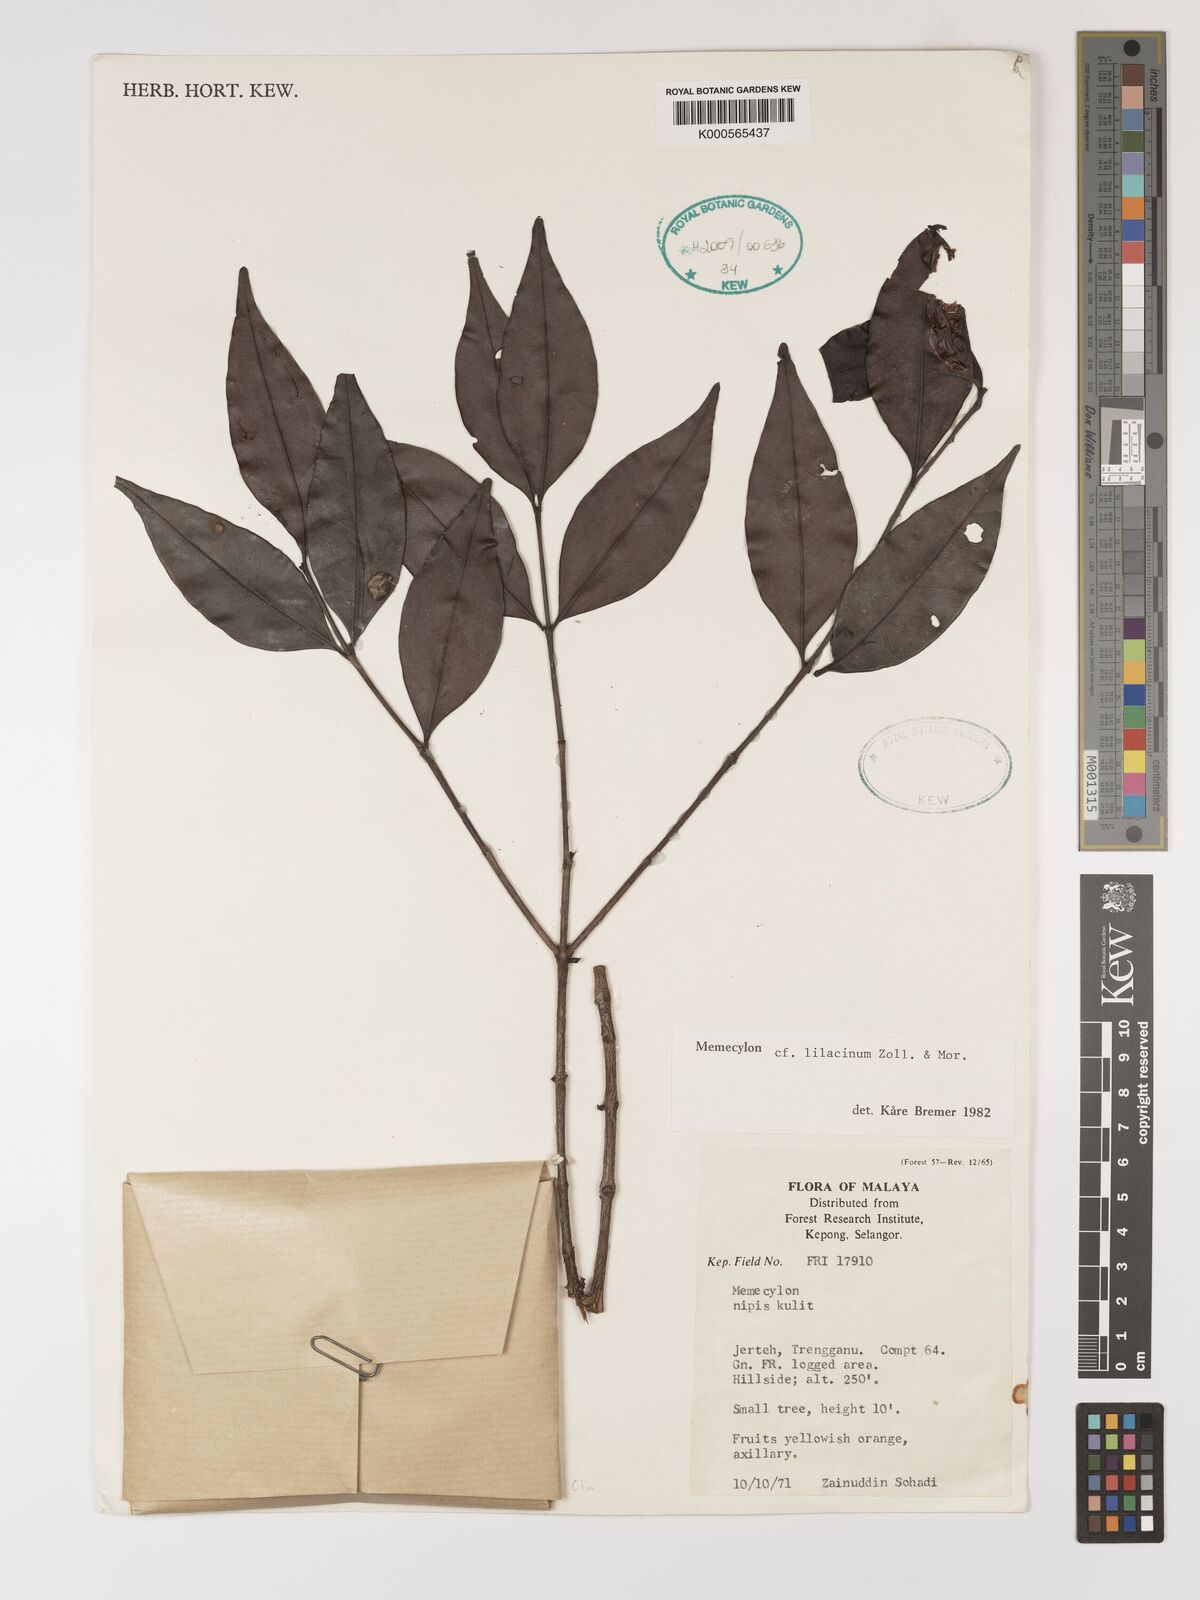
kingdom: Plantae
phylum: Tracheophyta
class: Magnoliopsida
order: Myrtales
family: Melastomataceae
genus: Memecylon
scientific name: Memecylon lilacinum
